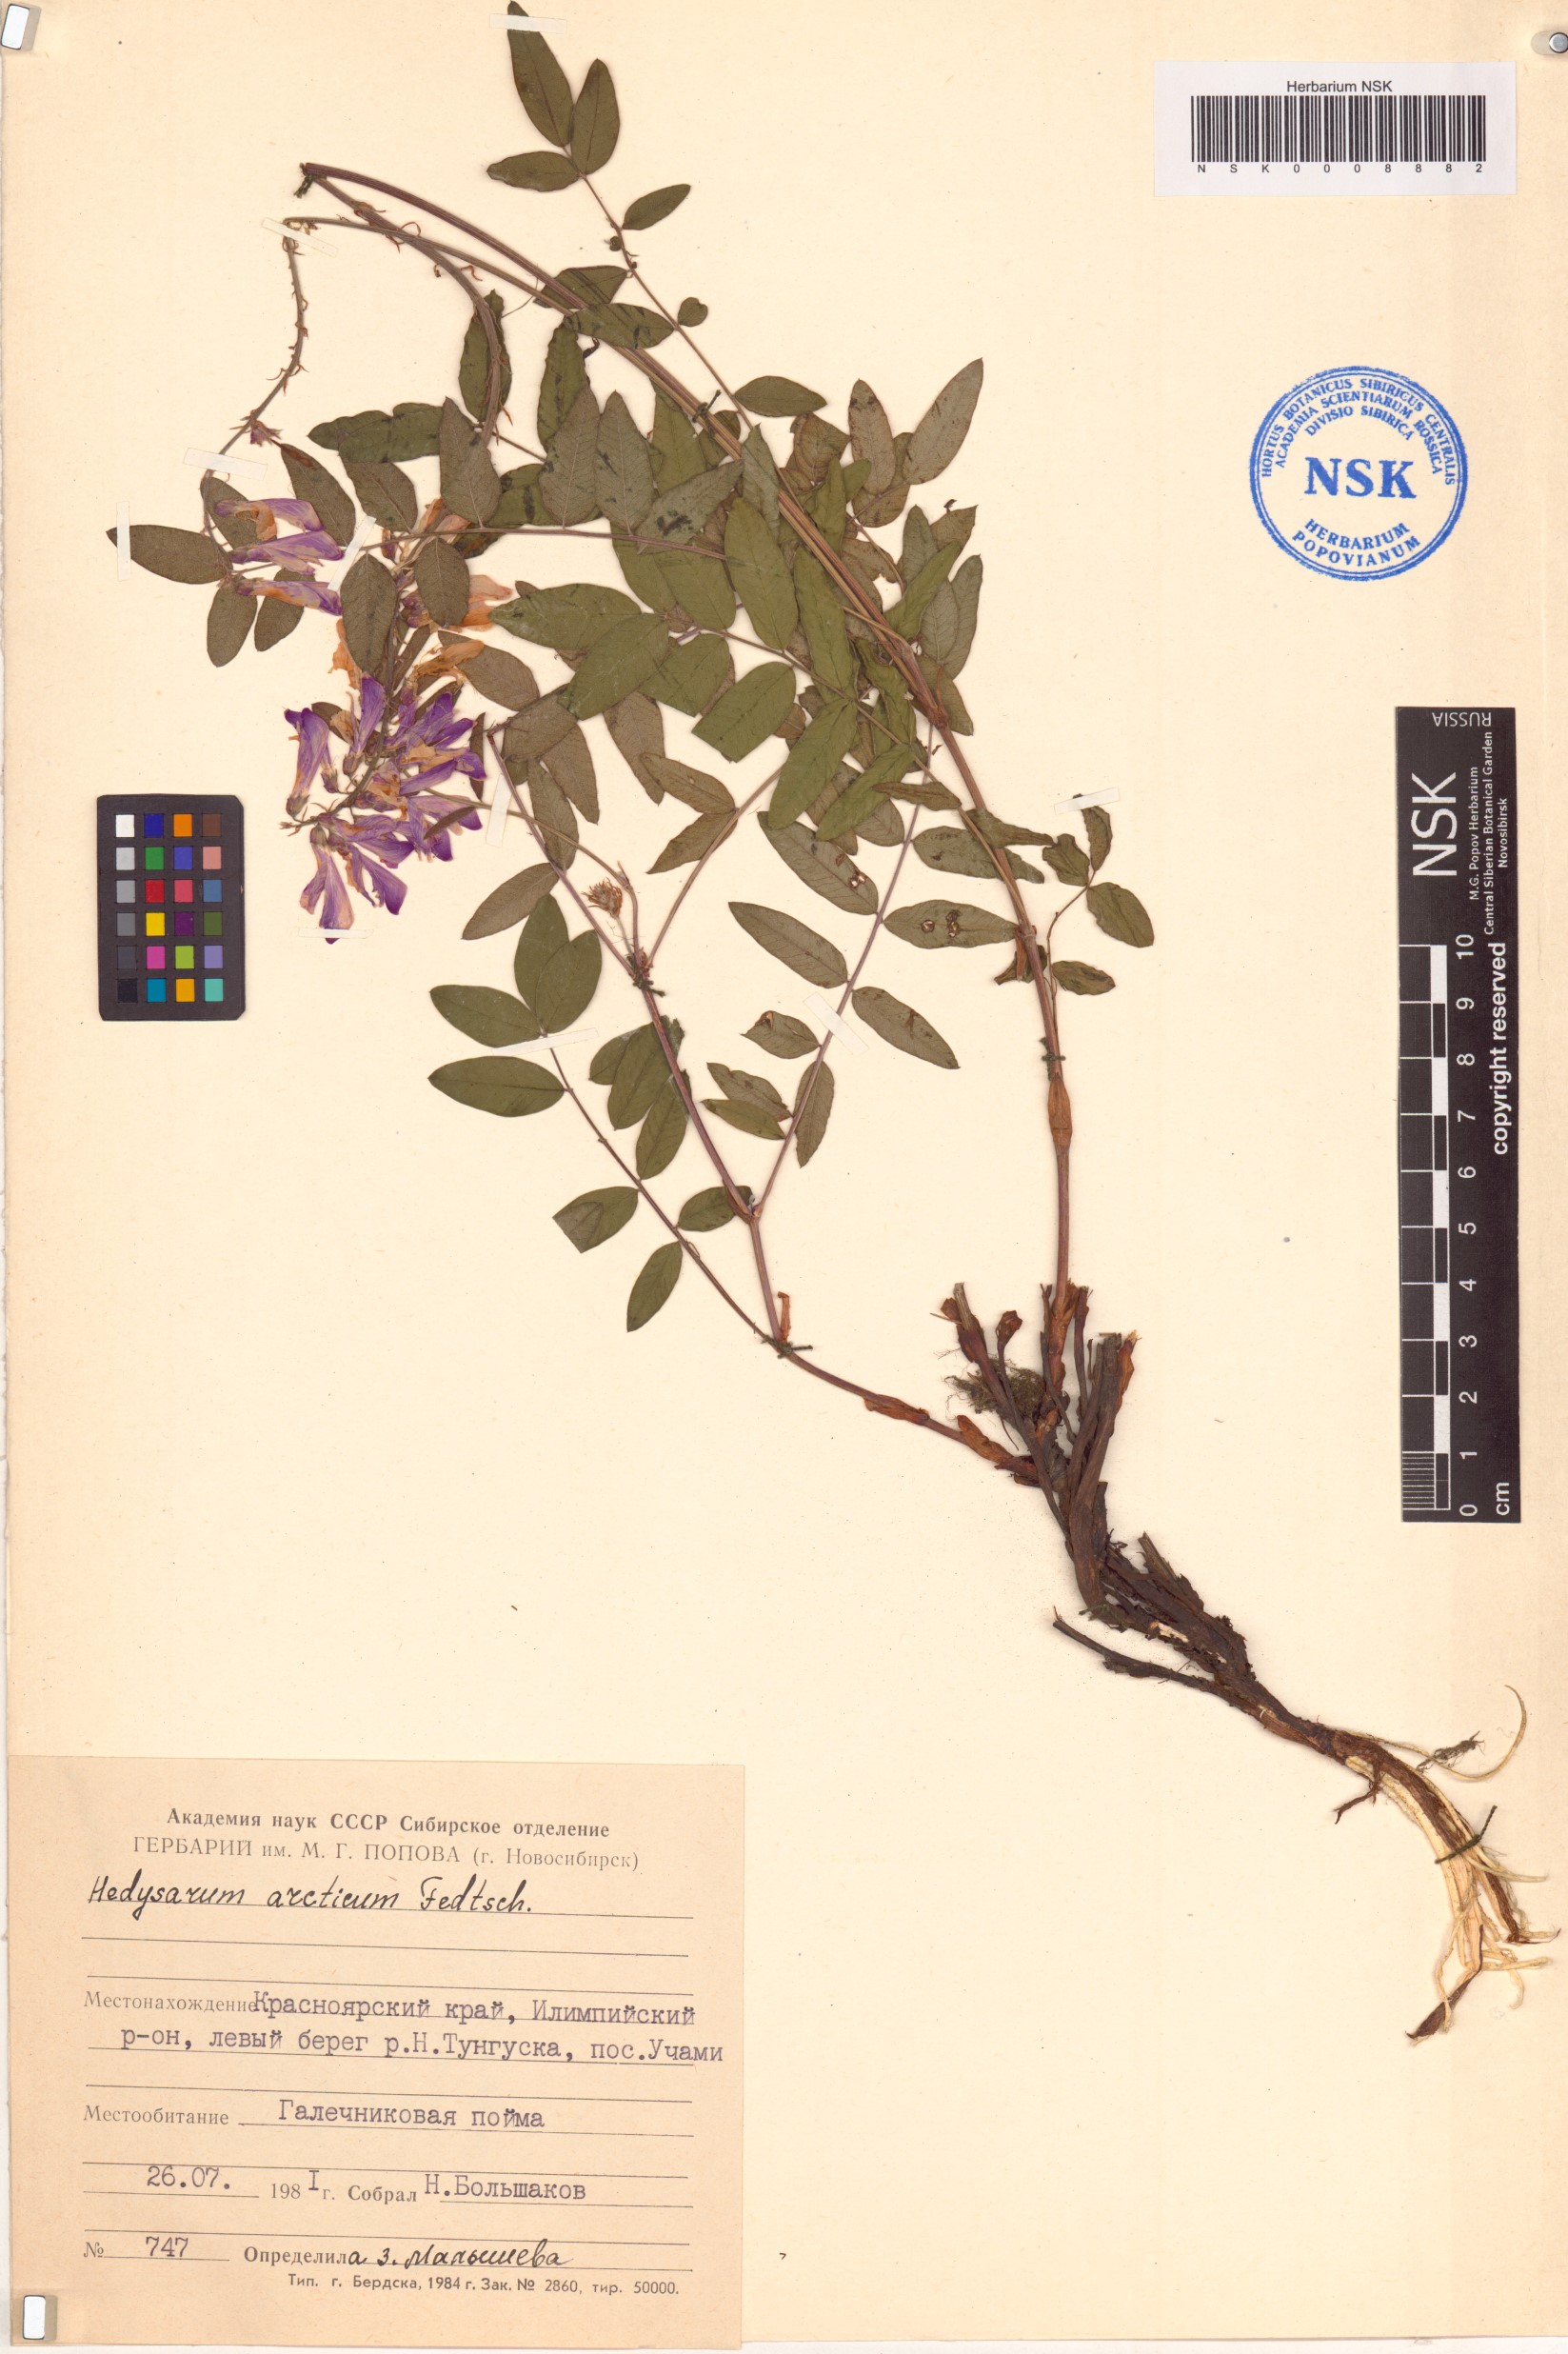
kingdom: Plantae
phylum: Tracheophyta
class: Magnoliopsida
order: Fabales
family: Fabaceae
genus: Hedysarum
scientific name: Hedysarum hedysaroides
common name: Alpine french-honeysuckle
